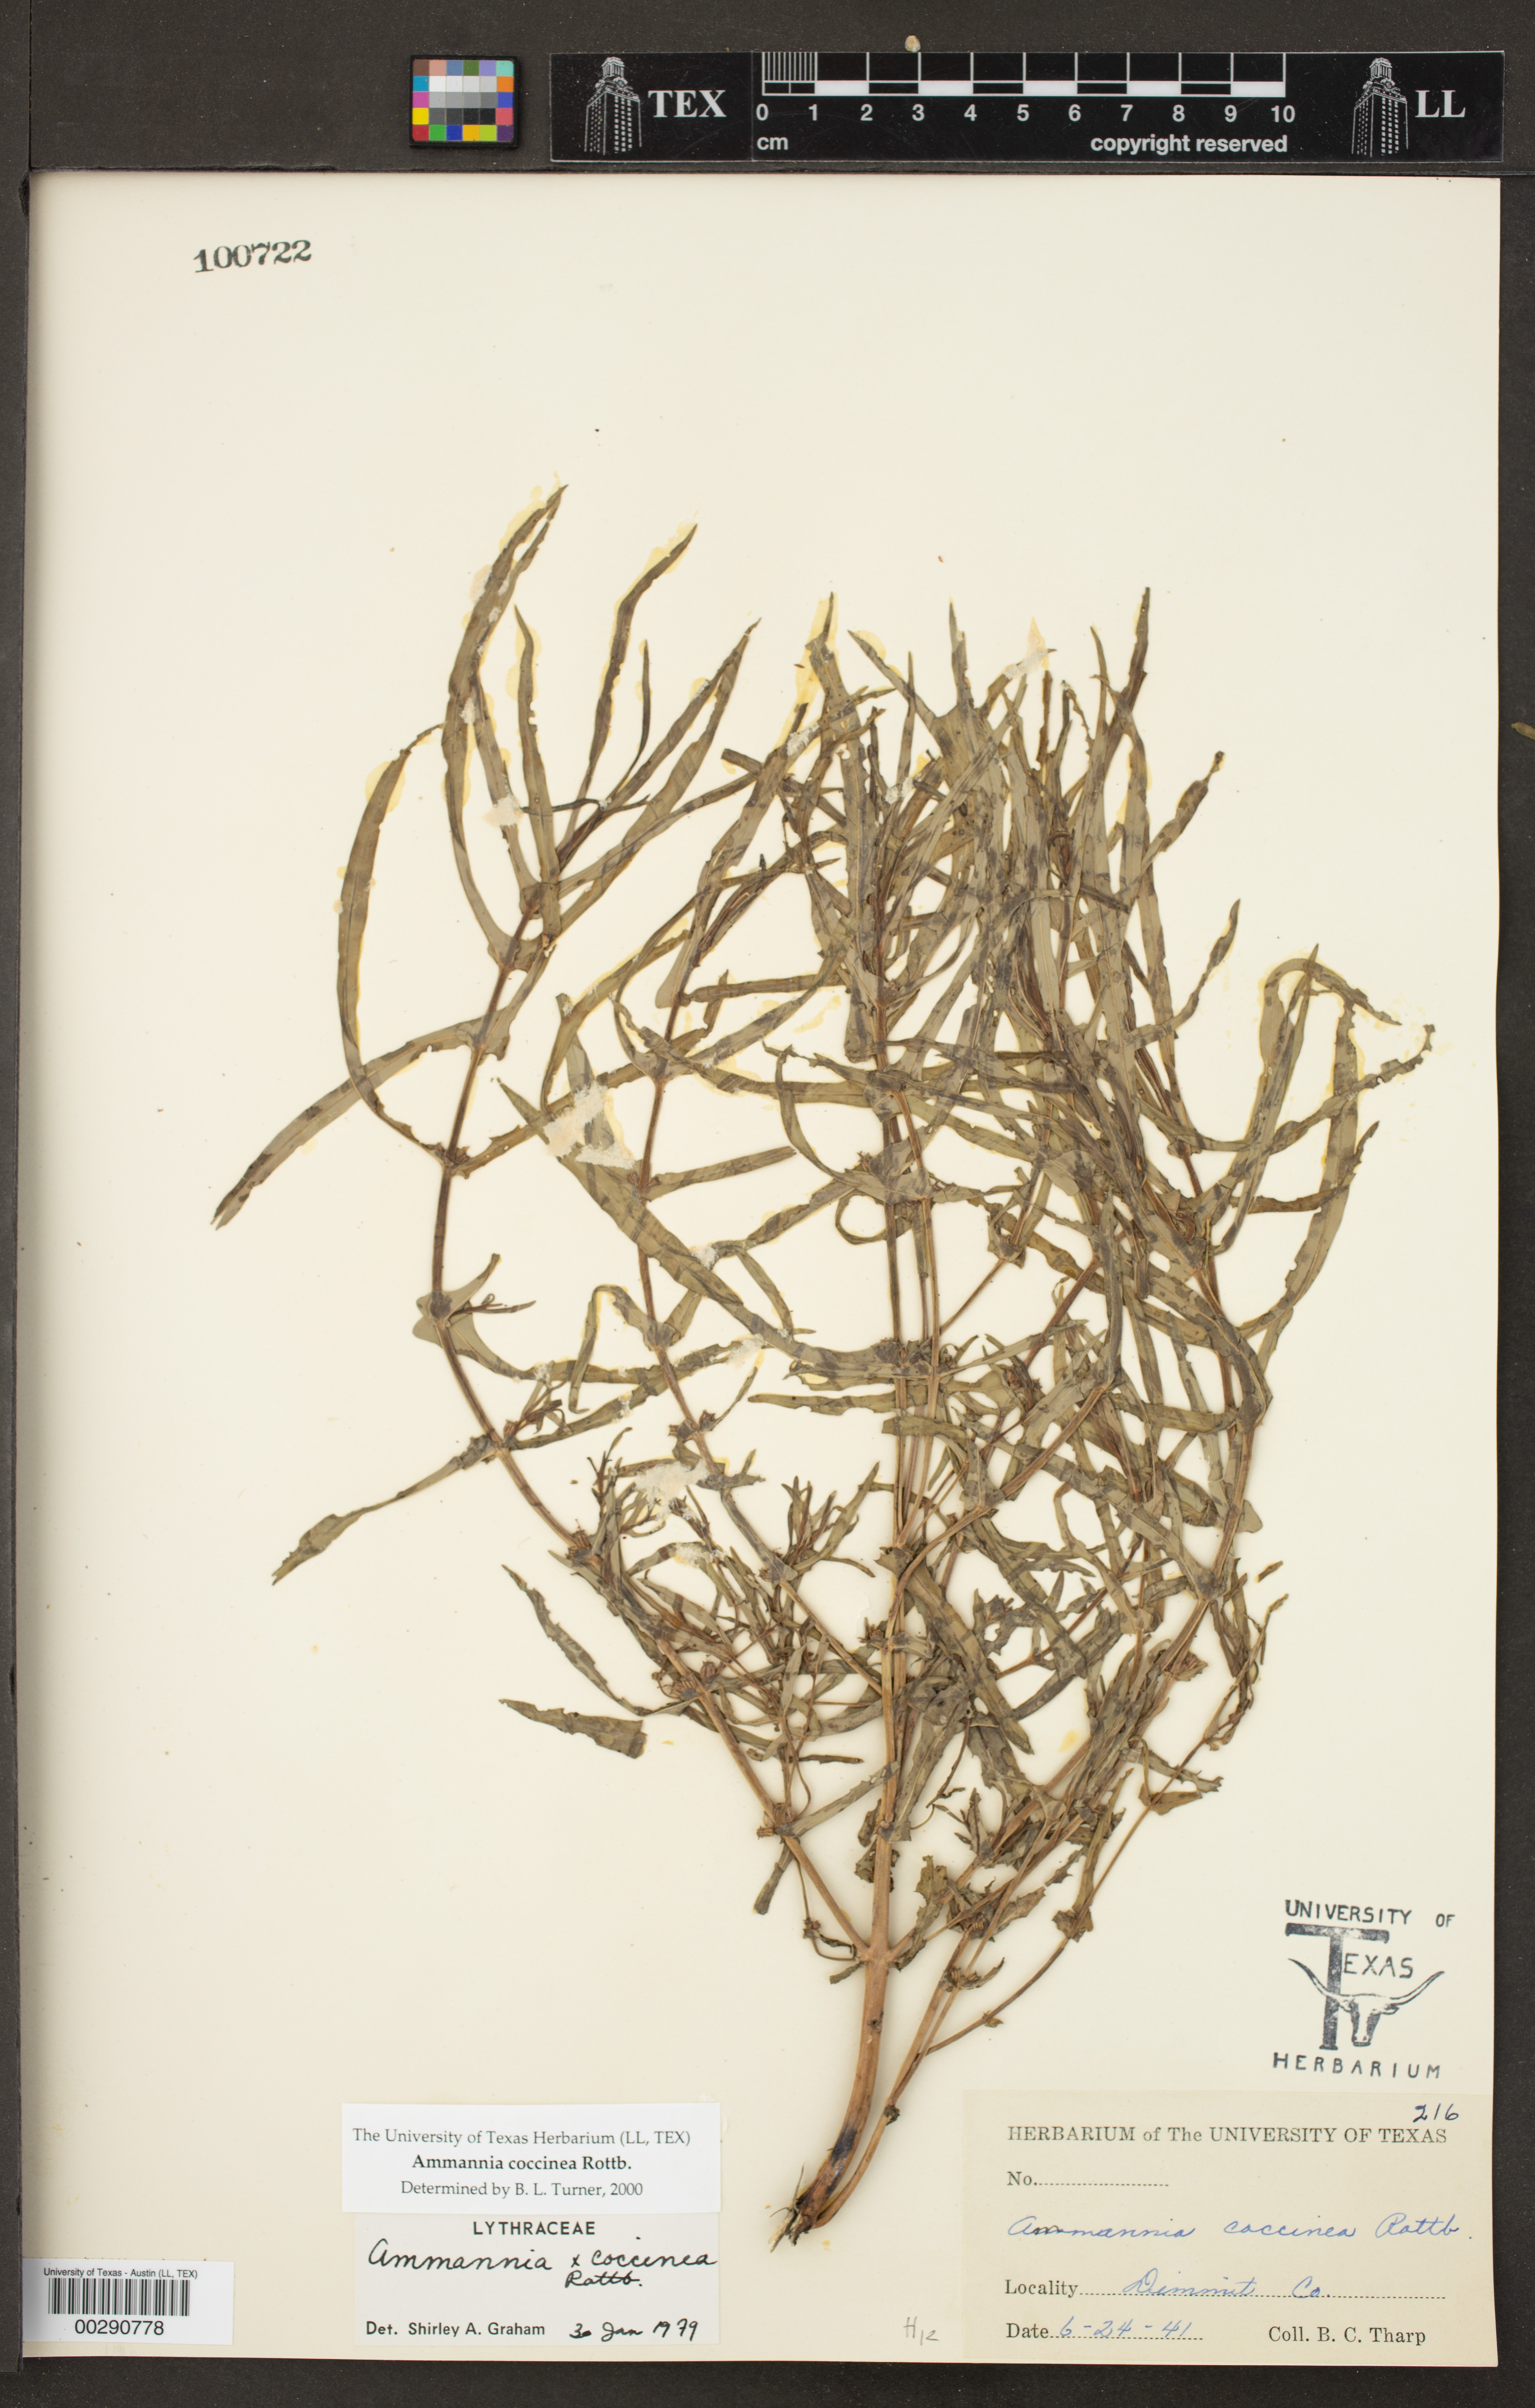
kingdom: Plantae
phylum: Tracheophyta
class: Magnoliopsida
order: Myrtales
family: Lythraceae
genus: Ammannia
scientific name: Ammannia coccinea
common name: Valley redstem
